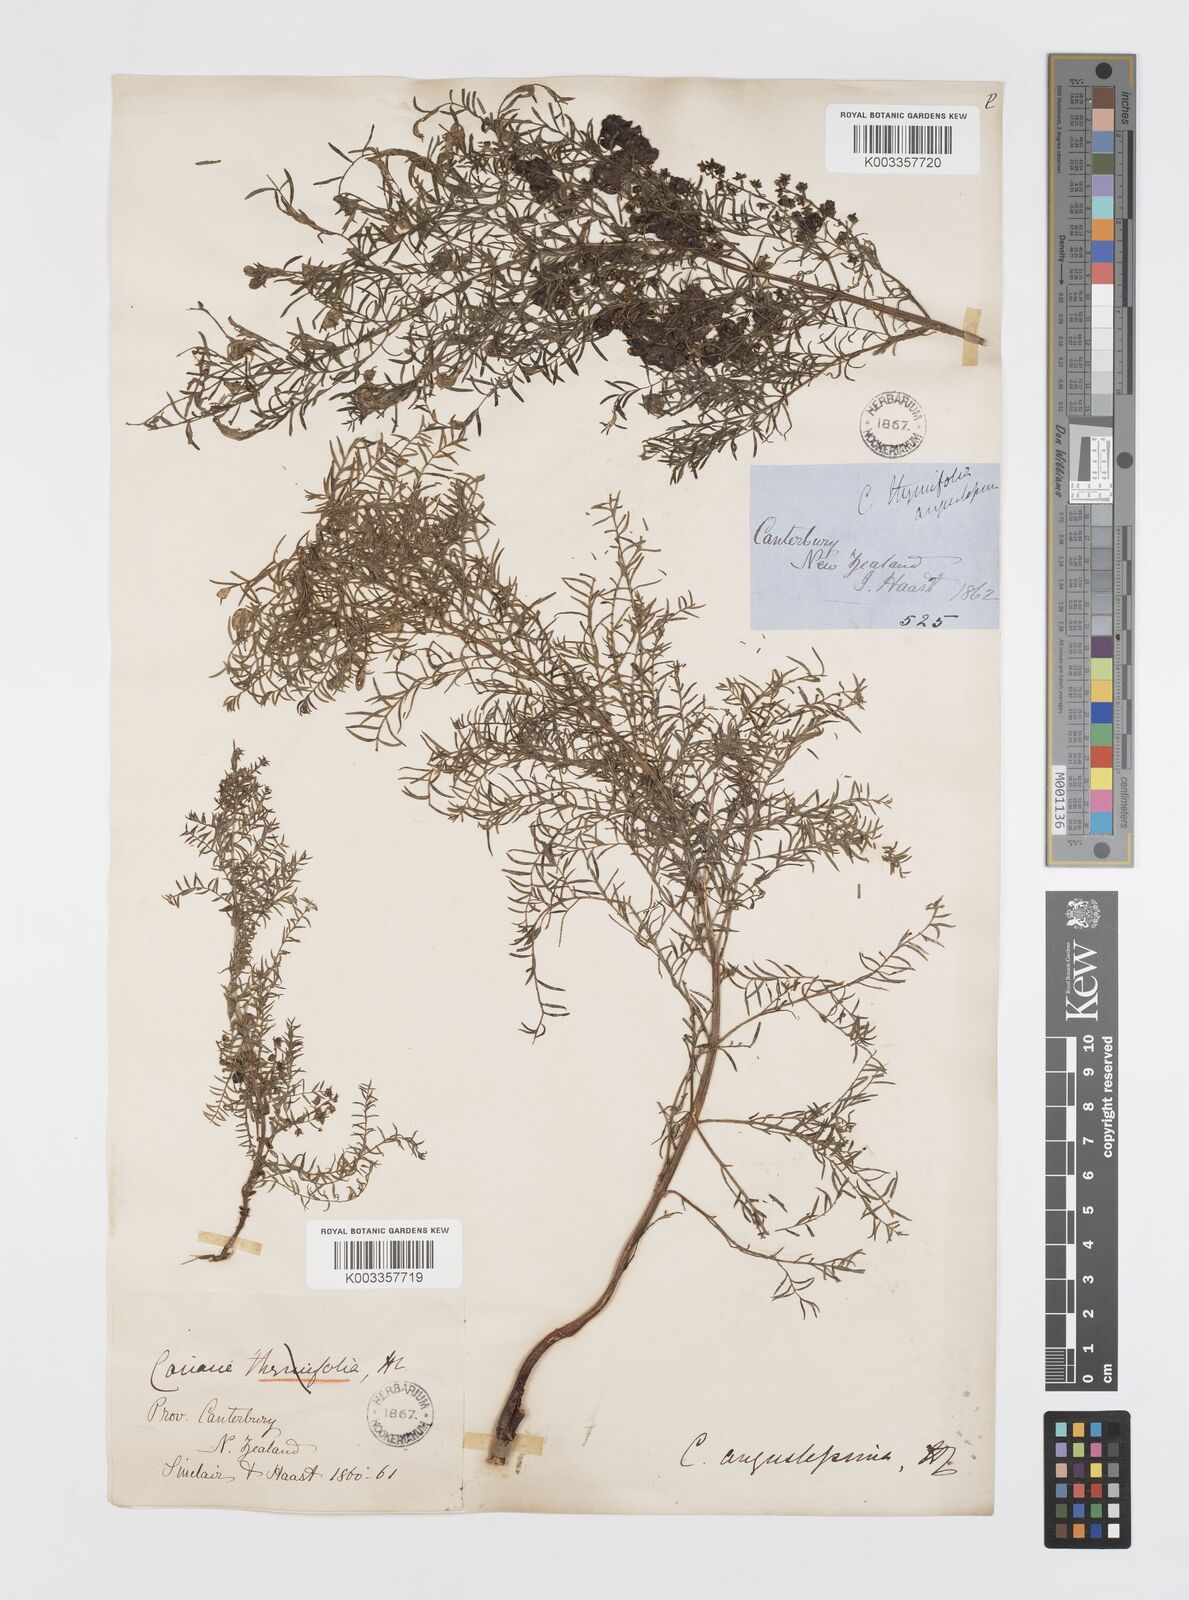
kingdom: Plantae
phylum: Tracheophyta
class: Magnoliopsida
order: Cucurbitales
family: Coriariaceae
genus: Coriaria
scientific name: Coriaria angustissima
